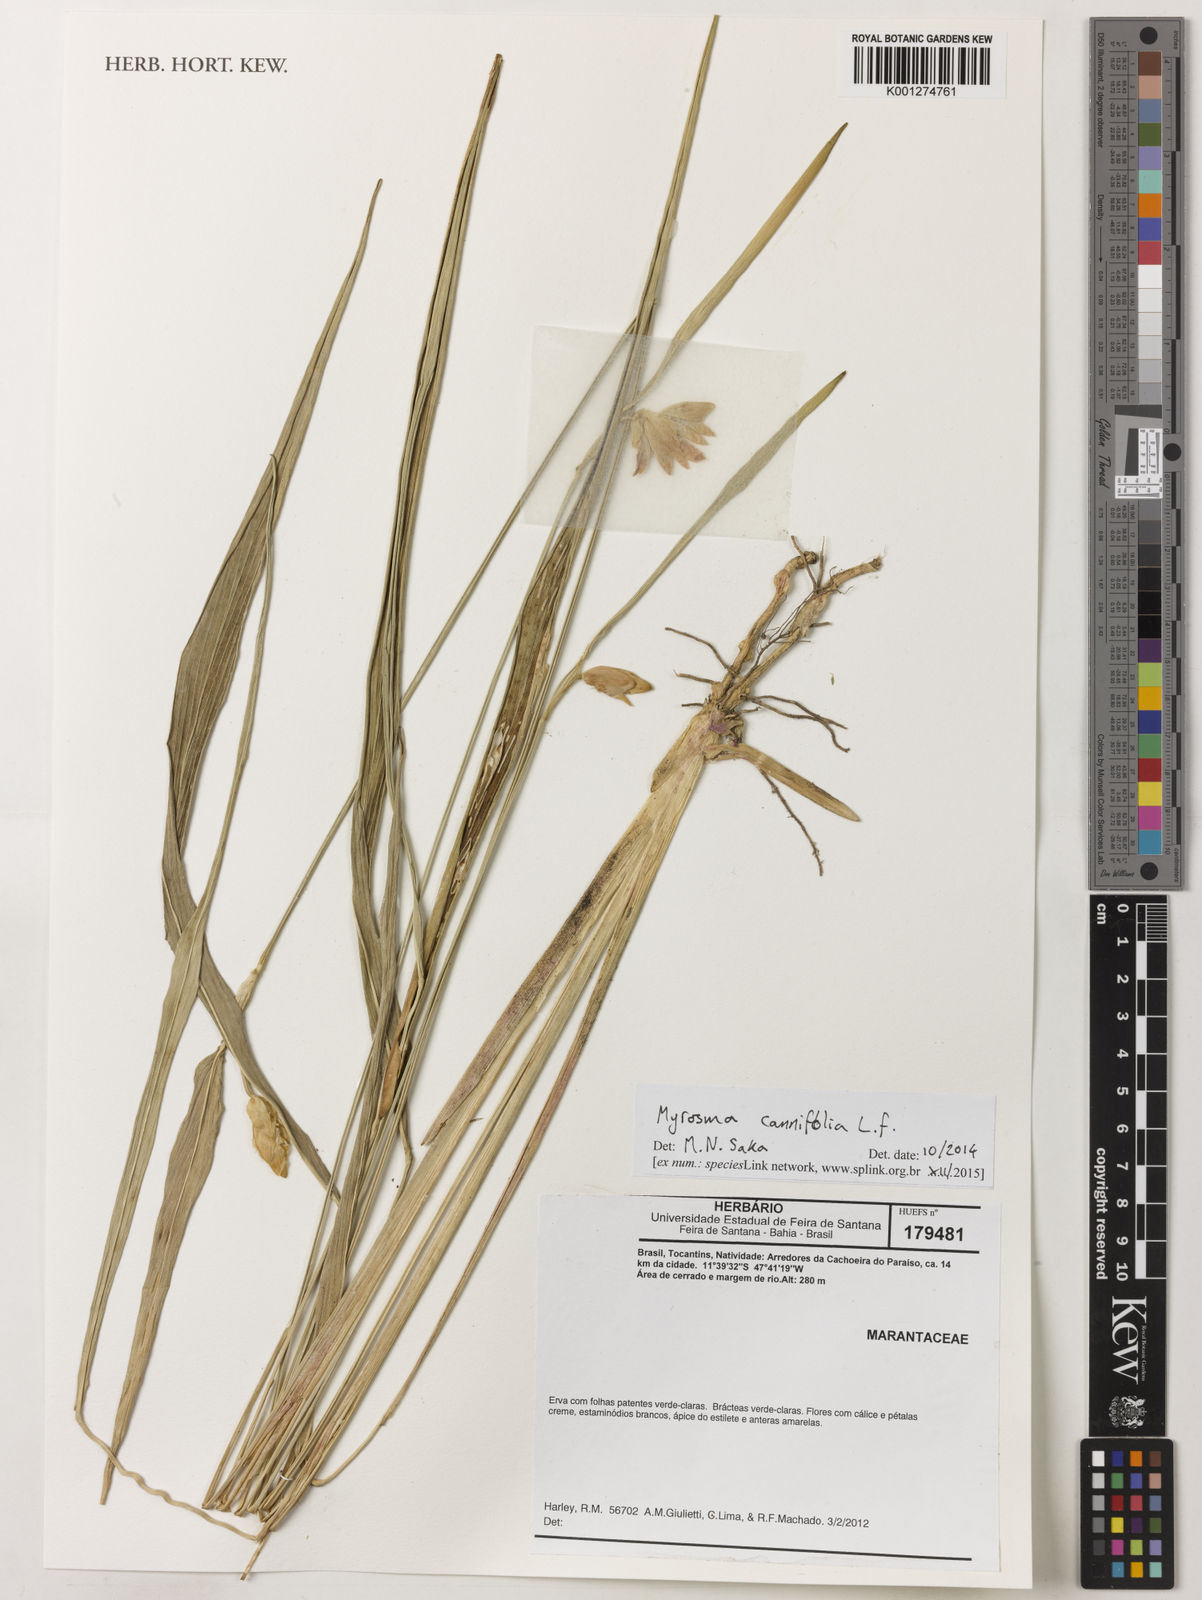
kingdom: Plantae
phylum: Tracheophyta
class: Liliopsida
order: Zingiberales
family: Marantaceae
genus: Myrosma
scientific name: Myrosma cannifolia
